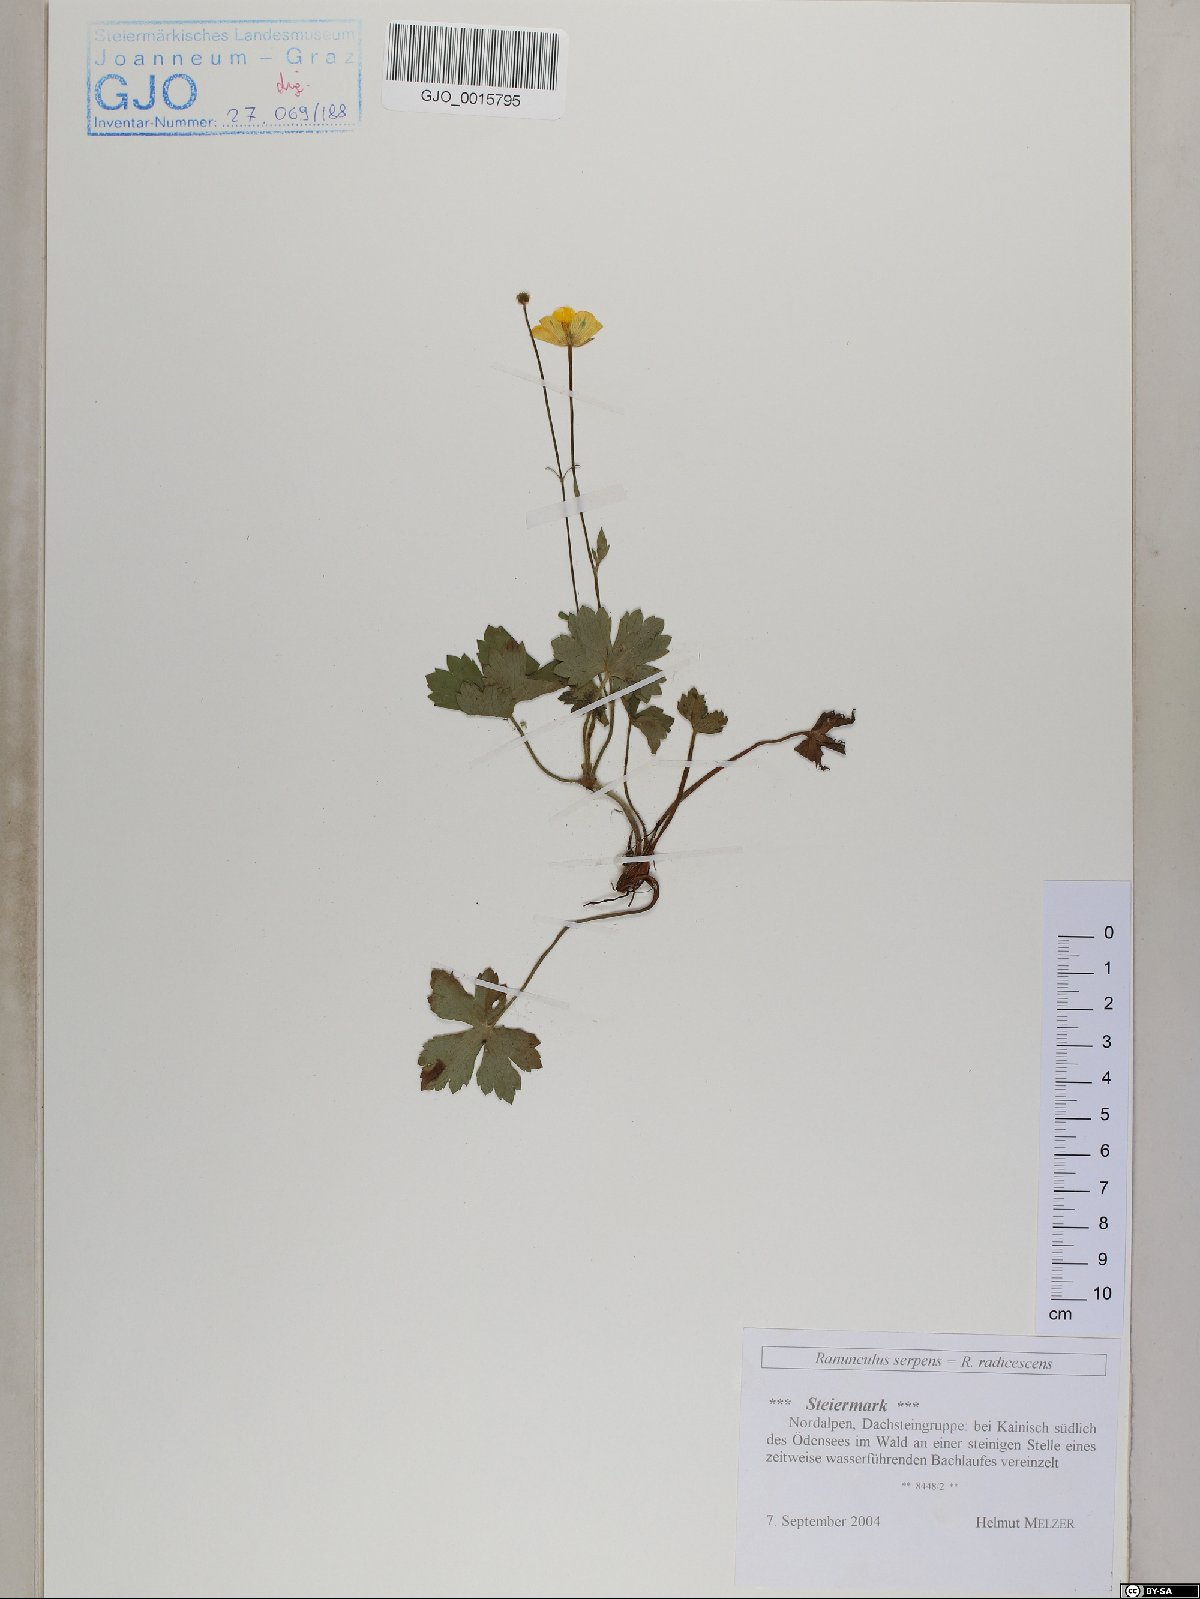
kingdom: Plantae
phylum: Tracheophyta
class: Magnoliopsida
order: Ranunculales
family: Ranunculaceae
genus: Ranunculus
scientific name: Ranunculus polyanthemos
